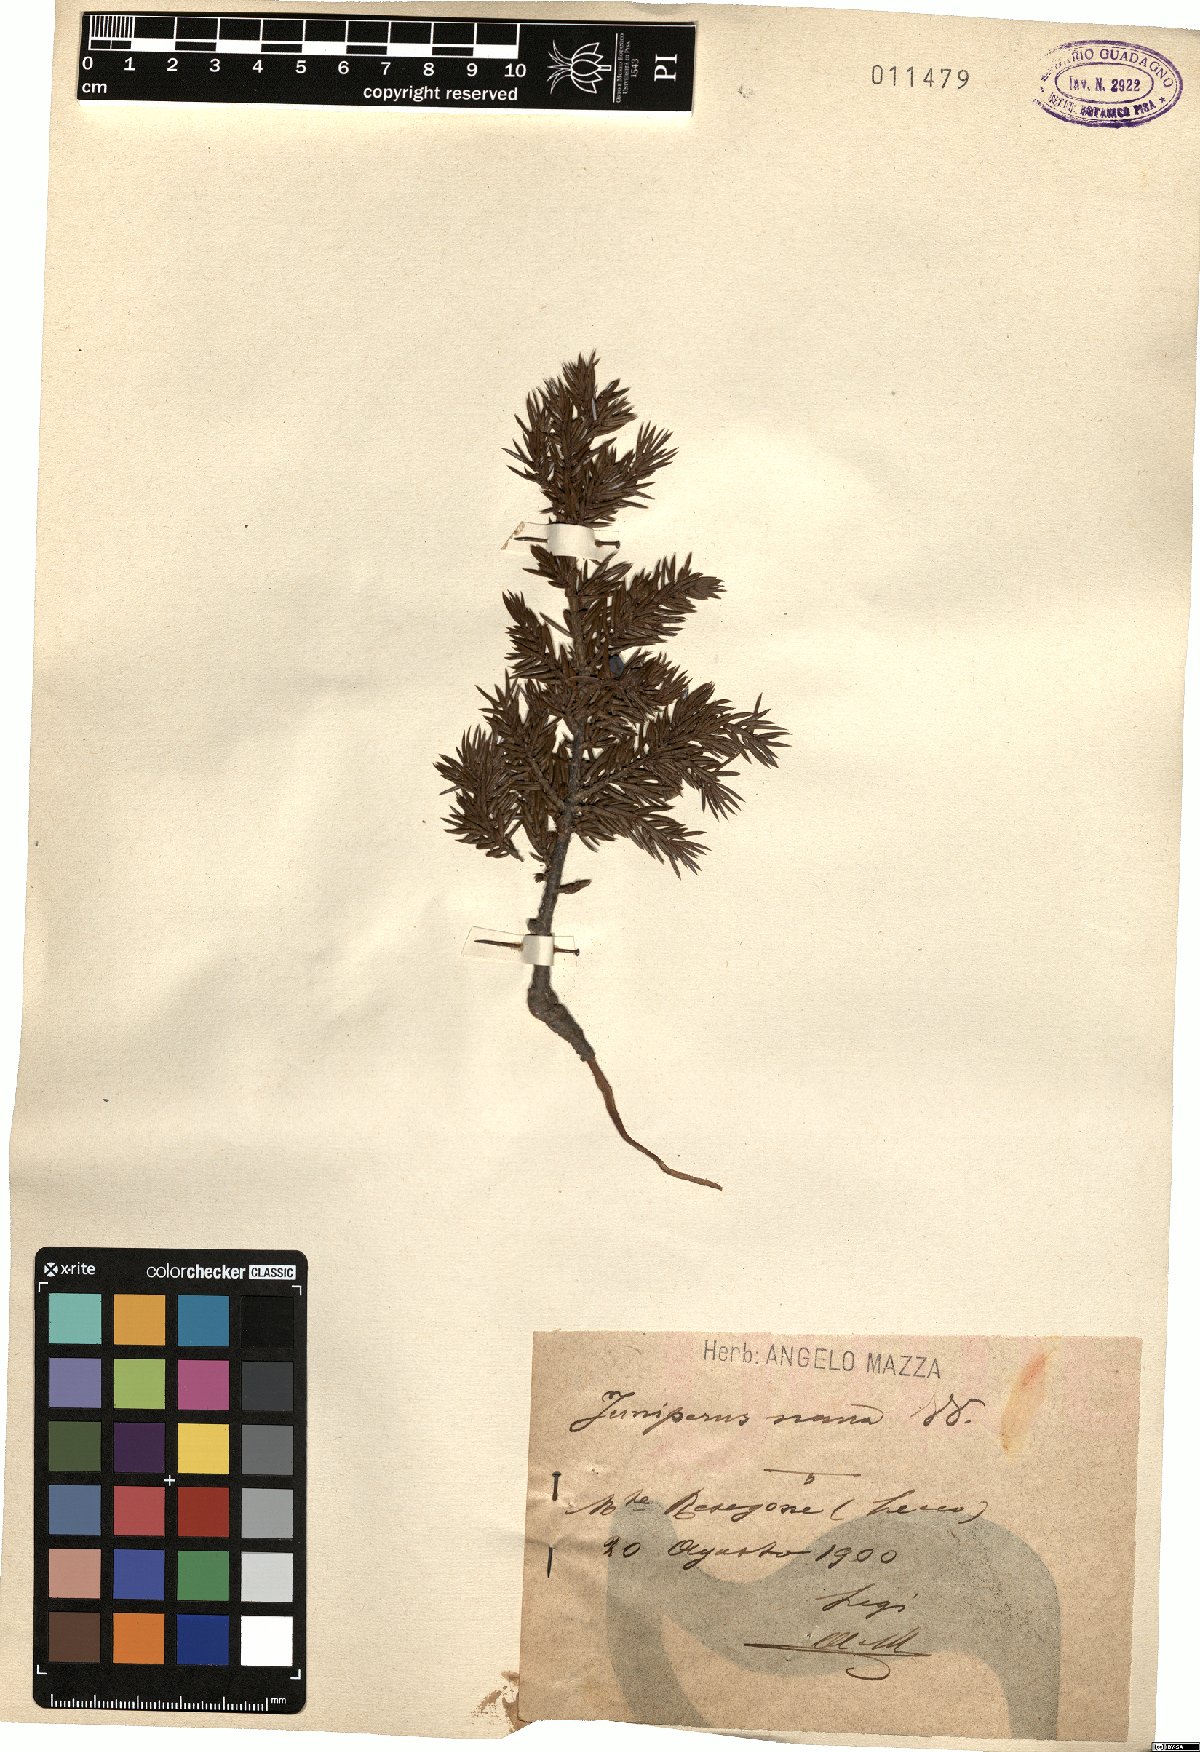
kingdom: Plantae
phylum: Tracheophyta
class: Pinopsida
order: Pinales
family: Cupressaceae
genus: Juniperus
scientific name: Juniperus communis
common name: Common juniper
